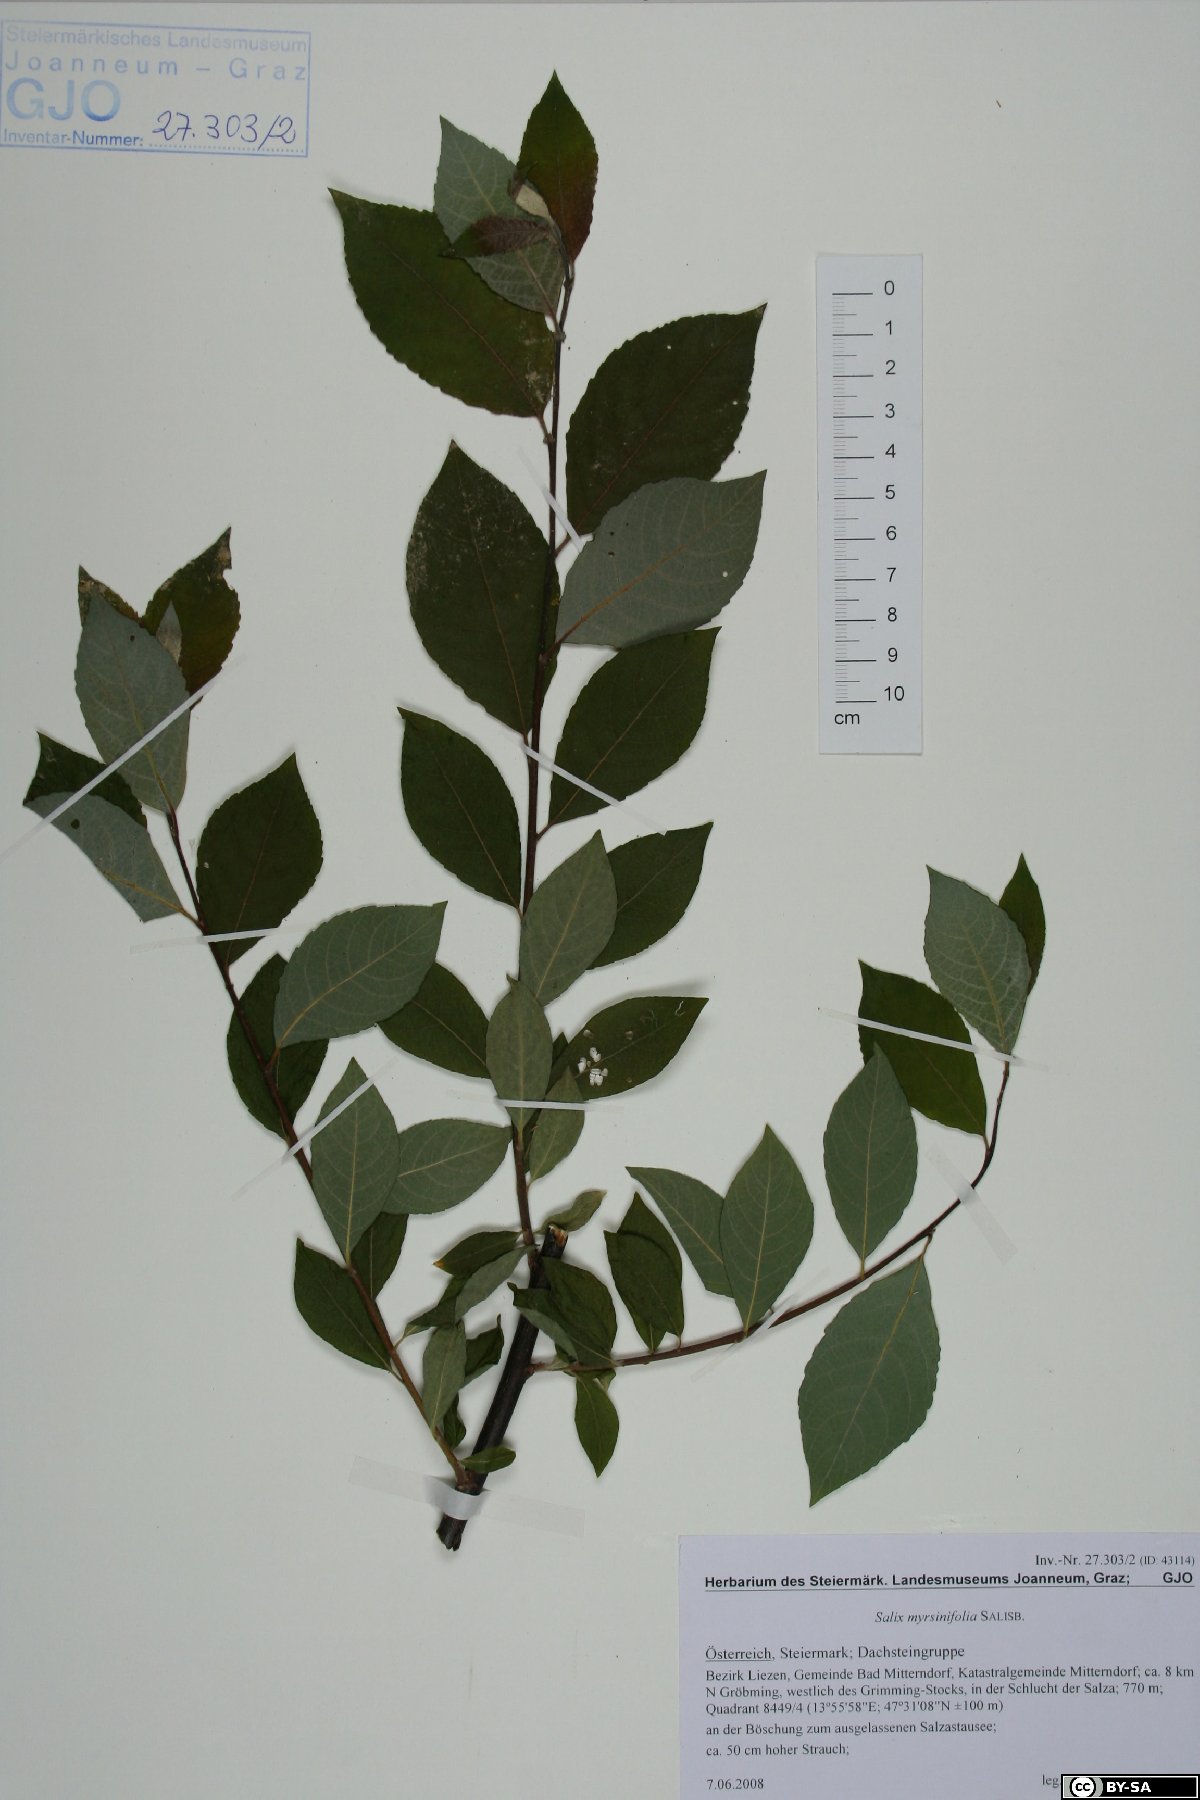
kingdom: Plantae
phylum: Tracheophyta
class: Magnoliopsida
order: Malpighiales
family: Salicaceae
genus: Salix
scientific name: Salix myrsinifolia
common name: Dark-leaved willow
